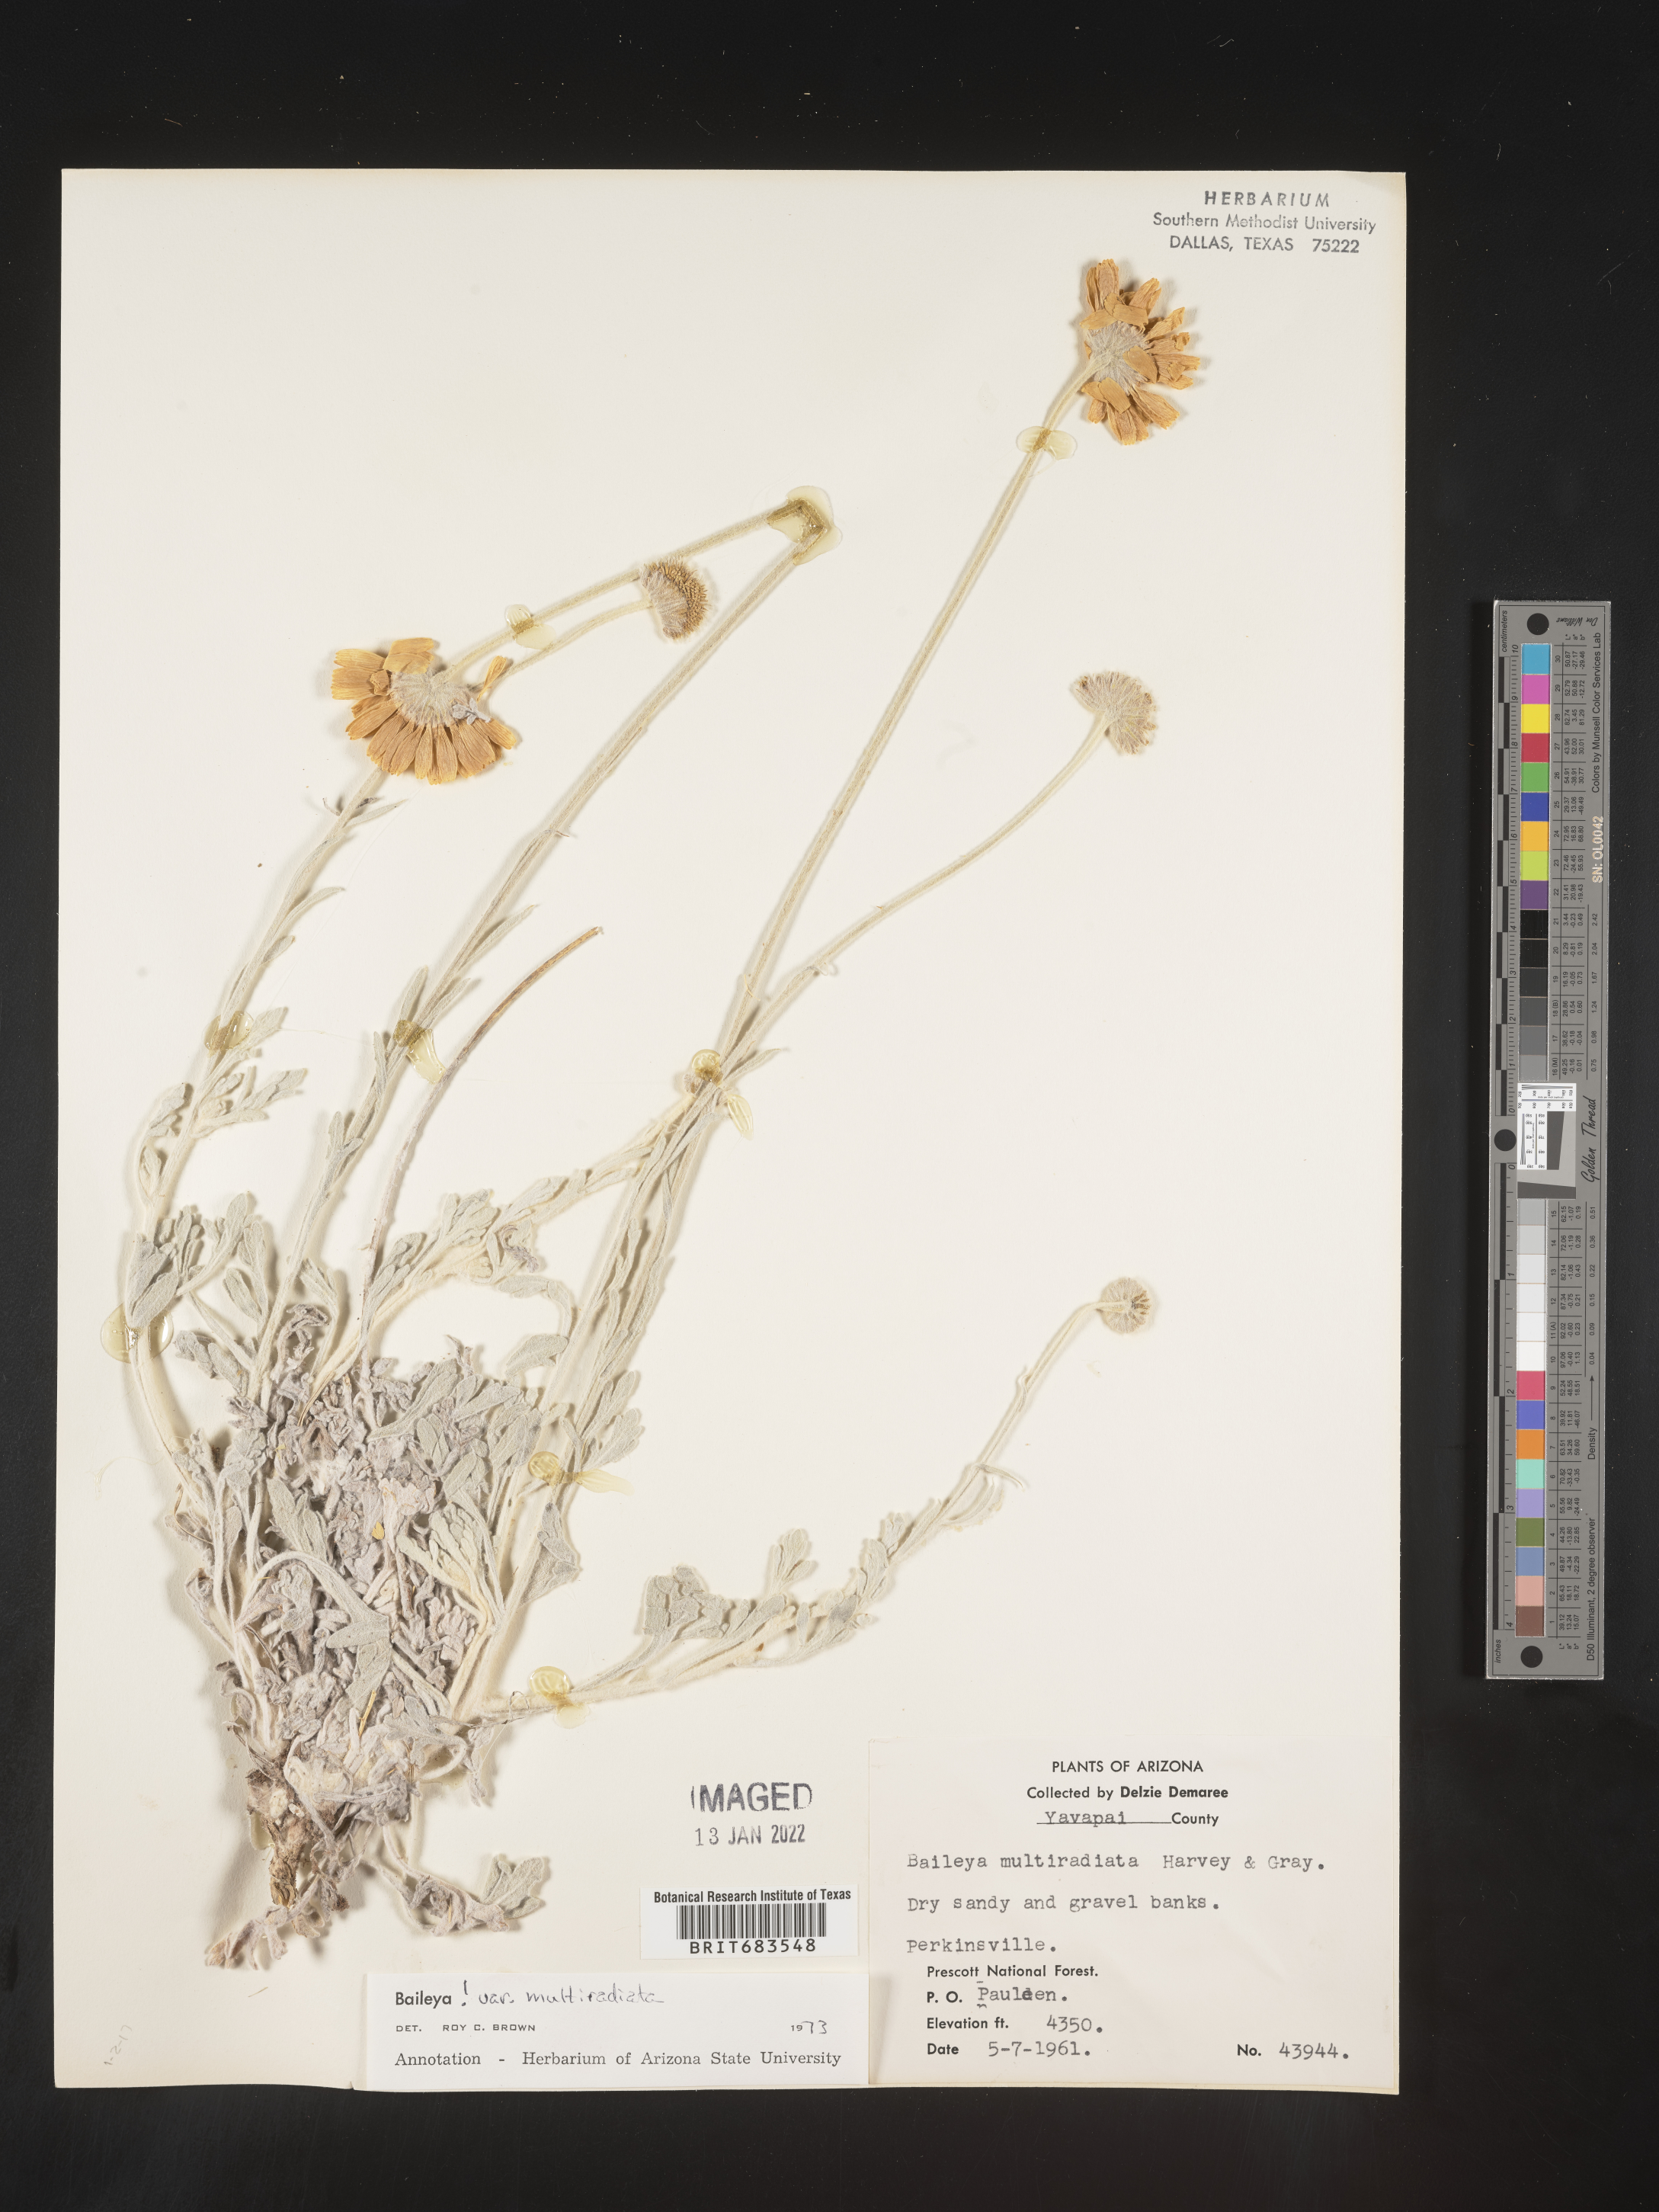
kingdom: Plantae
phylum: Tracheophyta
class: Magnoliopsida
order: Asterales
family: Asteraceae
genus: Baileya
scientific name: Baileya multiradiata
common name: Desert-marigold
